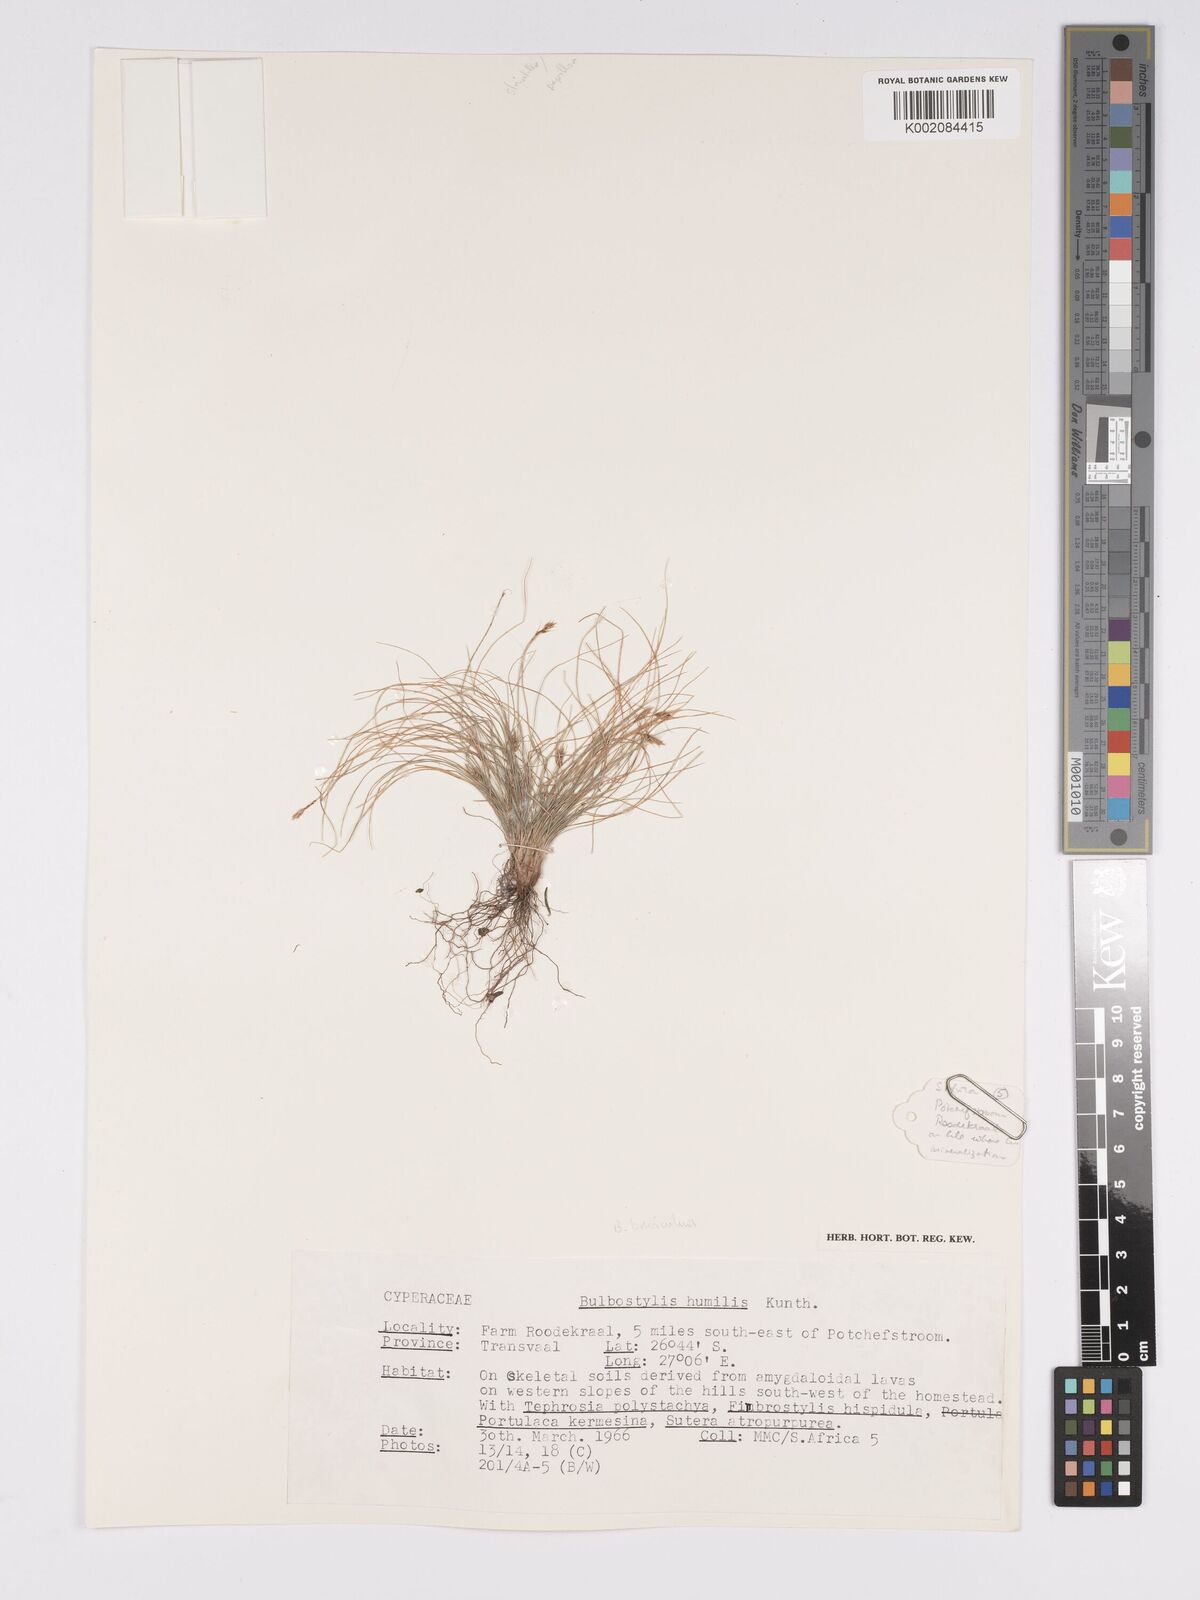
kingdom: Plantae
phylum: Tracheophyta
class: Liliopsida
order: Poales
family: Cyperaceae
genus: Bulbostylis
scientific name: Bulbostylis humilis
